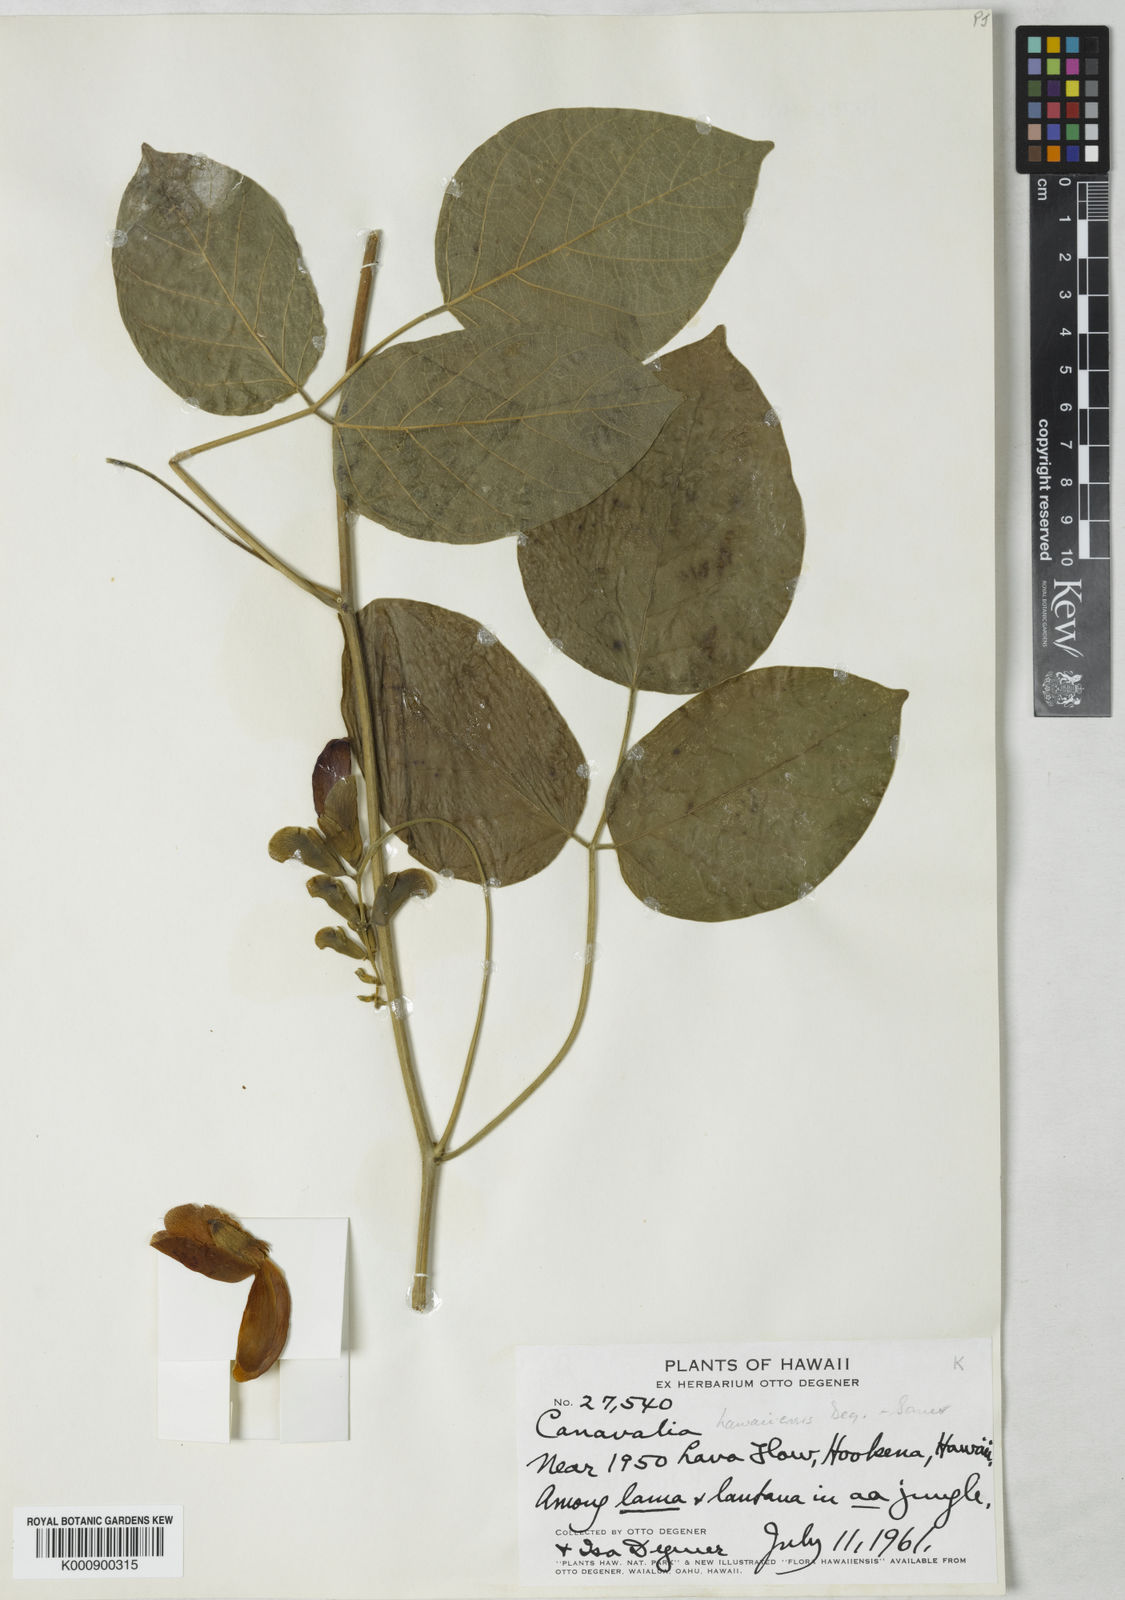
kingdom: Plantae
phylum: Tracheophyta
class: Magnoliopsida
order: Fabales
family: Fabaceae
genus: Canavalia
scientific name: Canavalia
